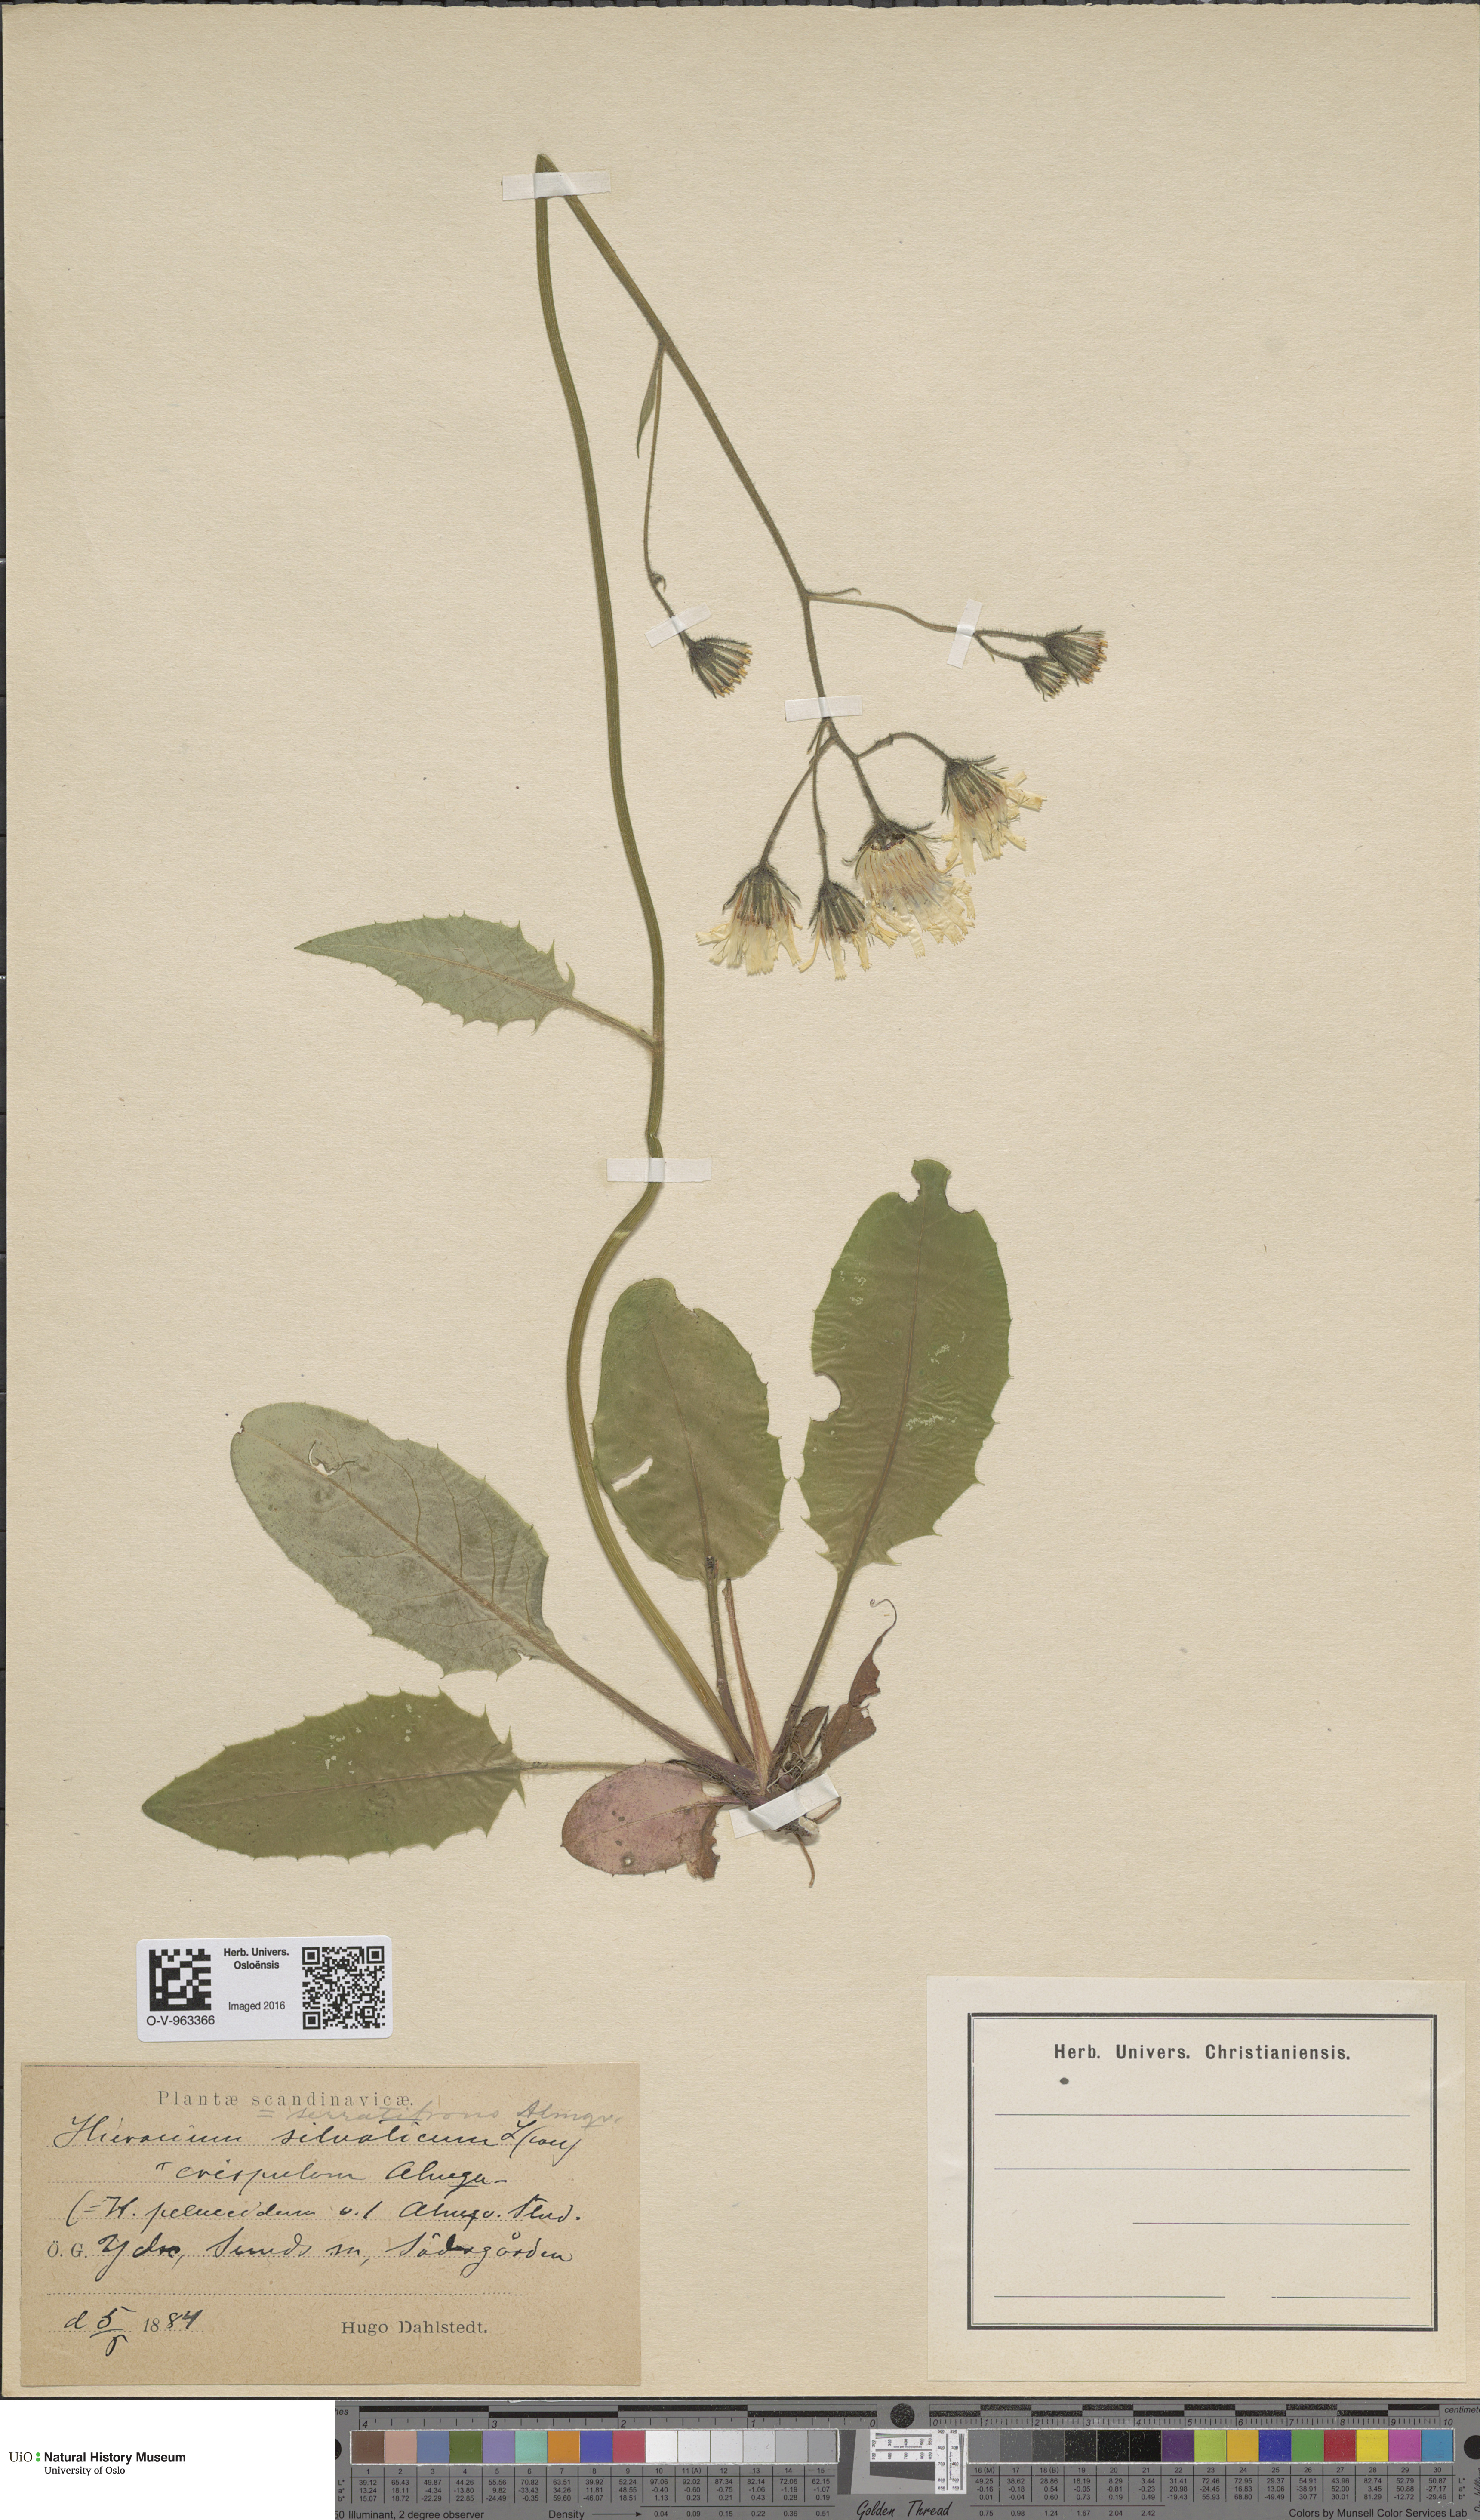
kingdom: Plantae
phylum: Tracheophyta
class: Magnoliopsida
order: Asterales
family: Asteraceae
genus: Hieracium
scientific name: Hieracium serratifrons
